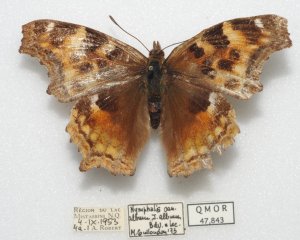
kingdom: Animalia
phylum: Arthropoda
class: Insecta
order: Lepidoptera
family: Nymphalidae
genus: Polygonia
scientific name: Polygonia vaualbum
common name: Compton Tortoiseshell
